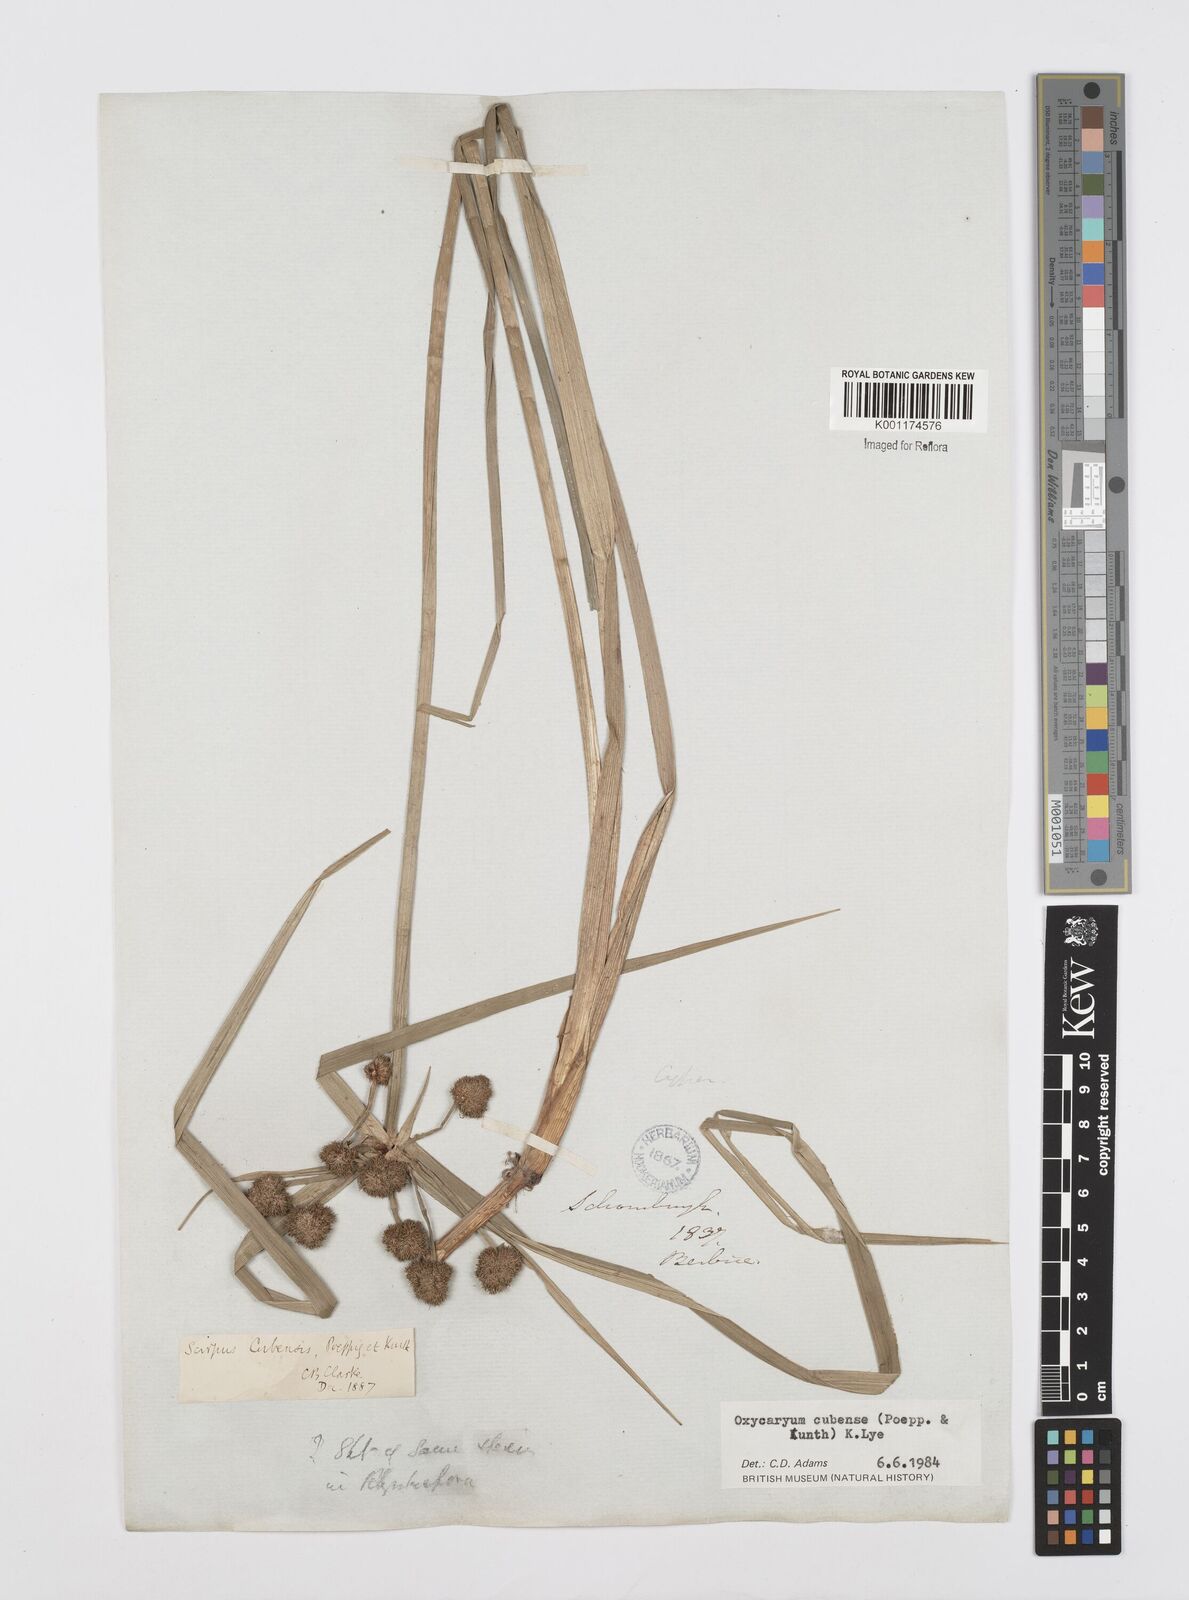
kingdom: Plantae
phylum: Tracheophyta
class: Liliopsida
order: Poales
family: Cyperaceae
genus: Cyperus
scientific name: Cyperus elegans
